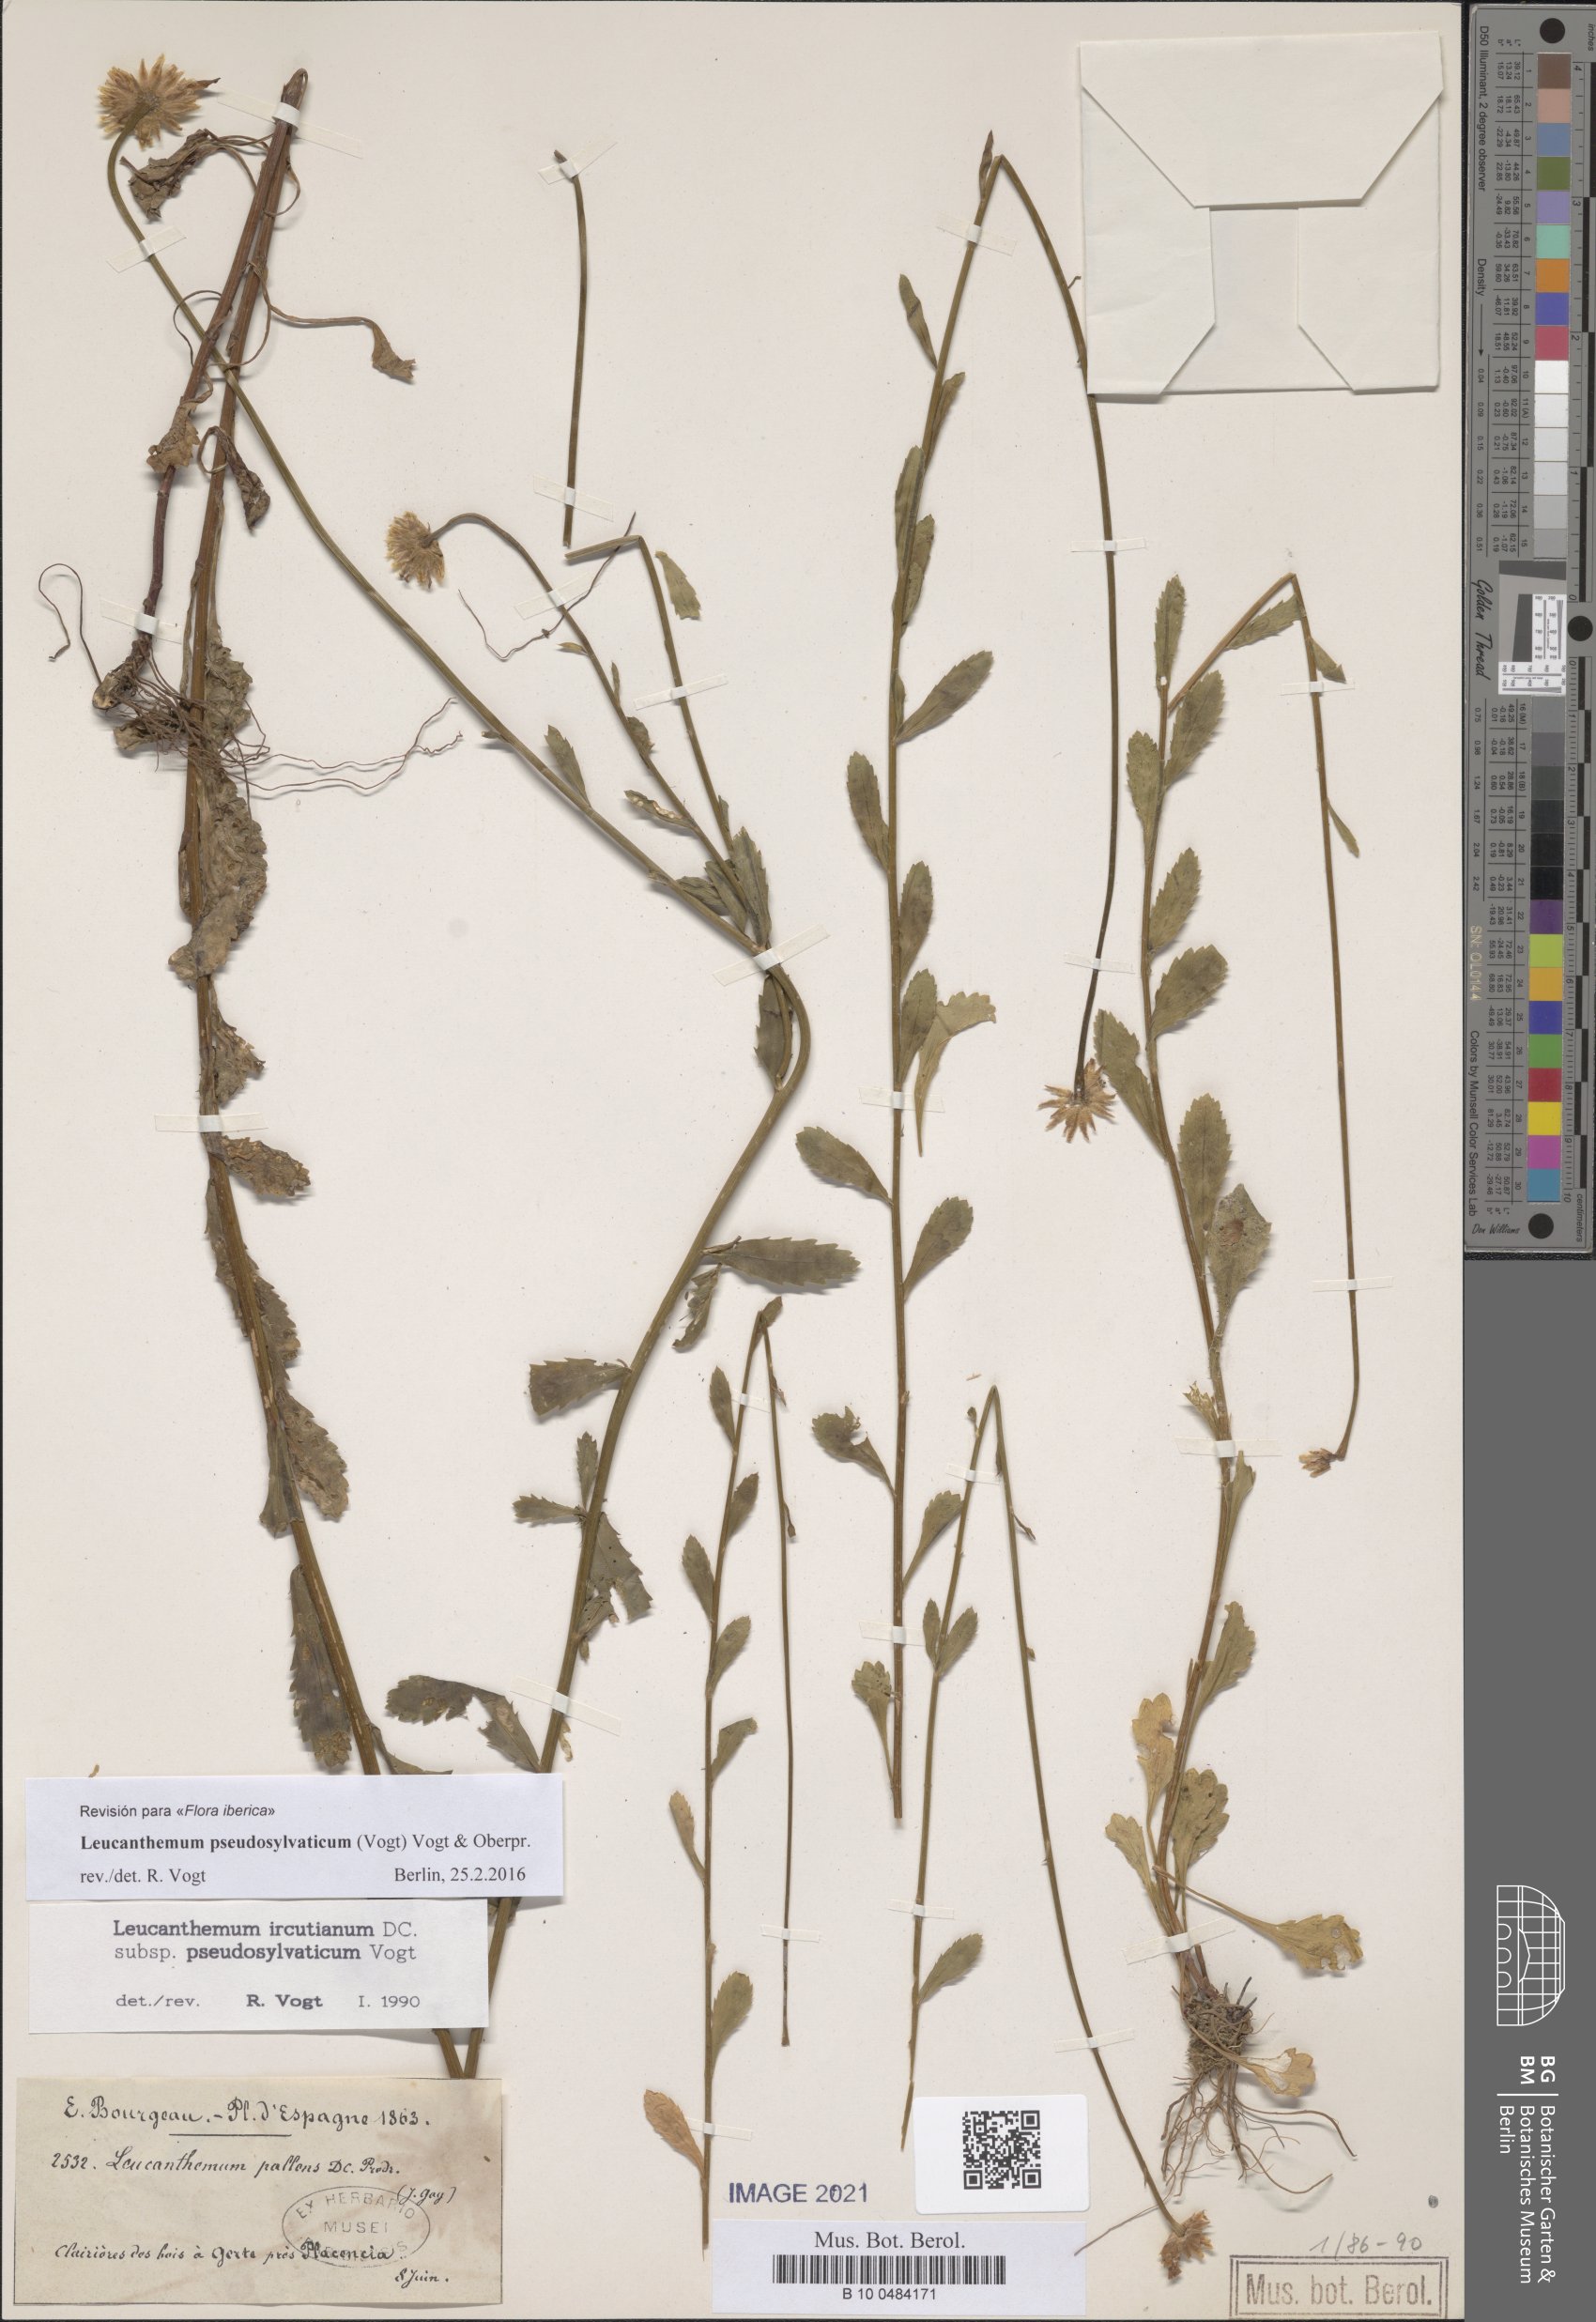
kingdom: Plantae
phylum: Tracheophyta
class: Magnoliopsida
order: Asterales
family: Asteraceae
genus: Leucanthemum
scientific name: Leucanthemum pseudosylvaticum
